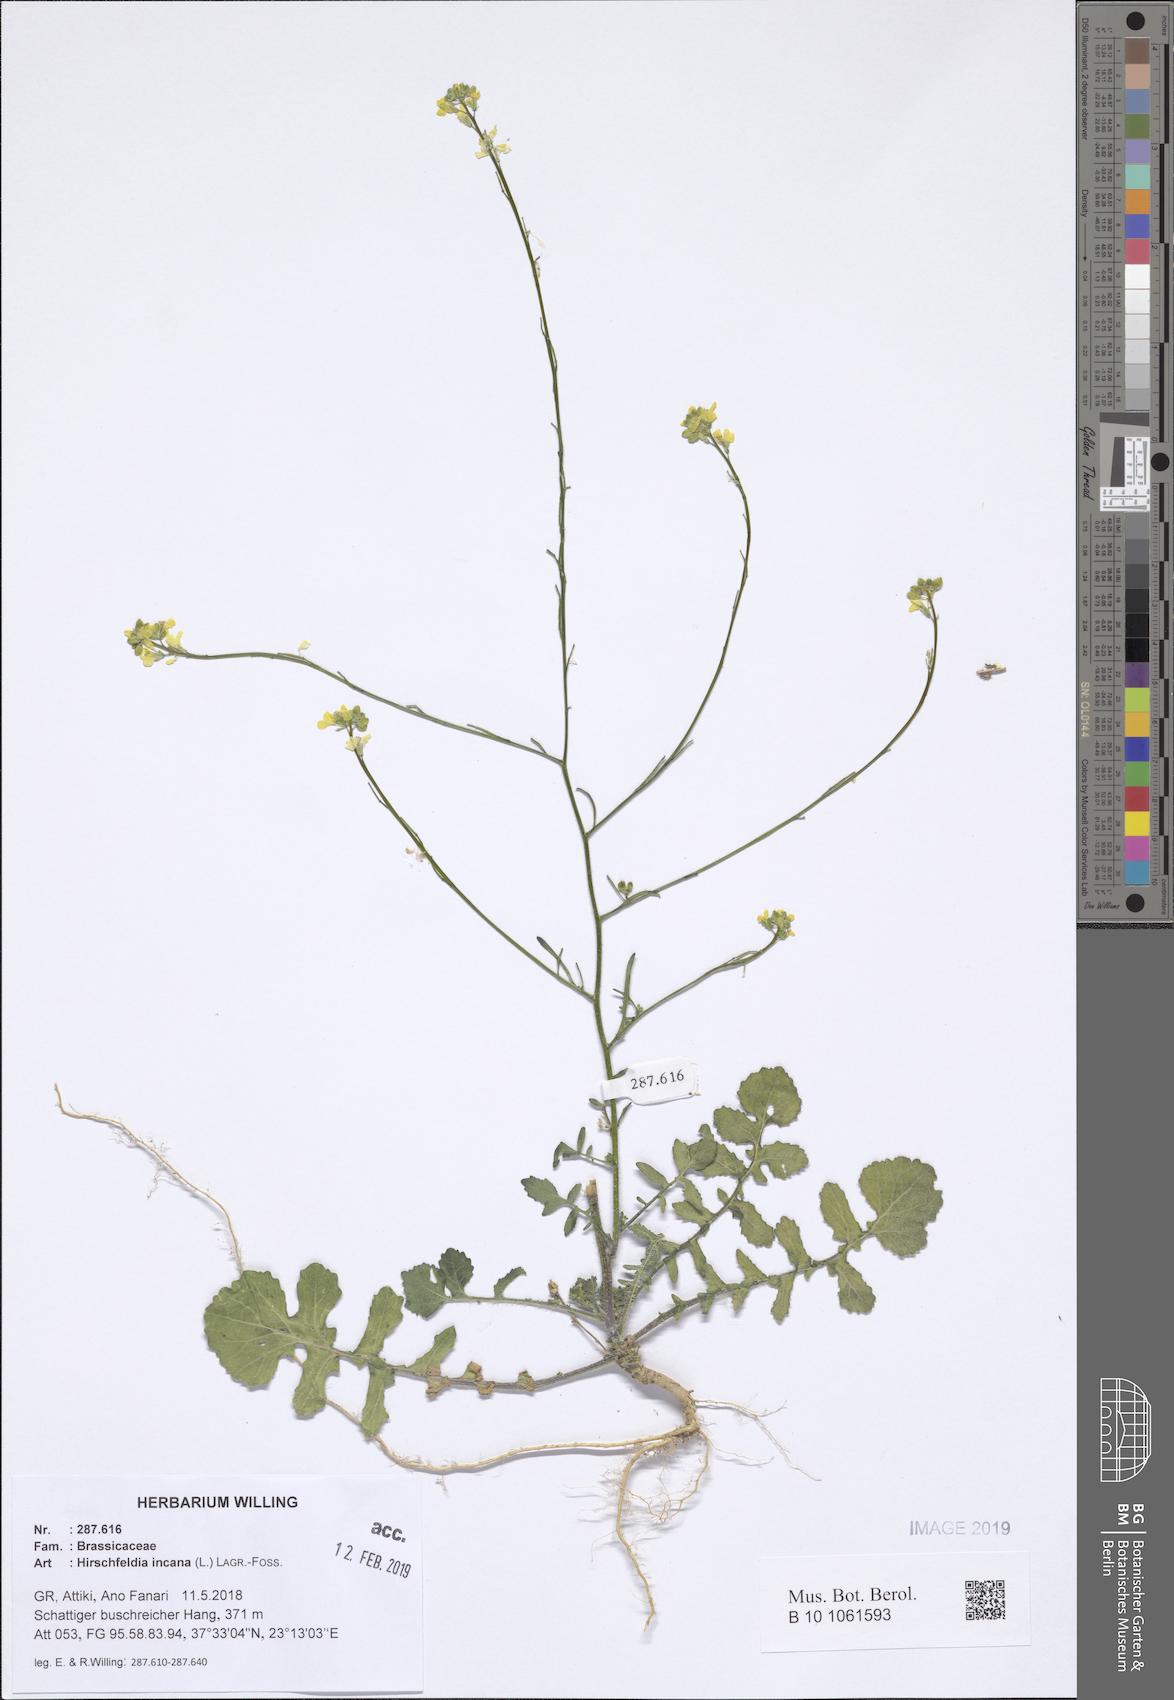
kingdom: Plantae
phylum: Tracheophyta
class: Magnoliopsida
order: Brassicales
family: Brassicaceae
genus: Hirschfeldia
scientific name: Hirschfeldia incana
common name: Hoary mustard
